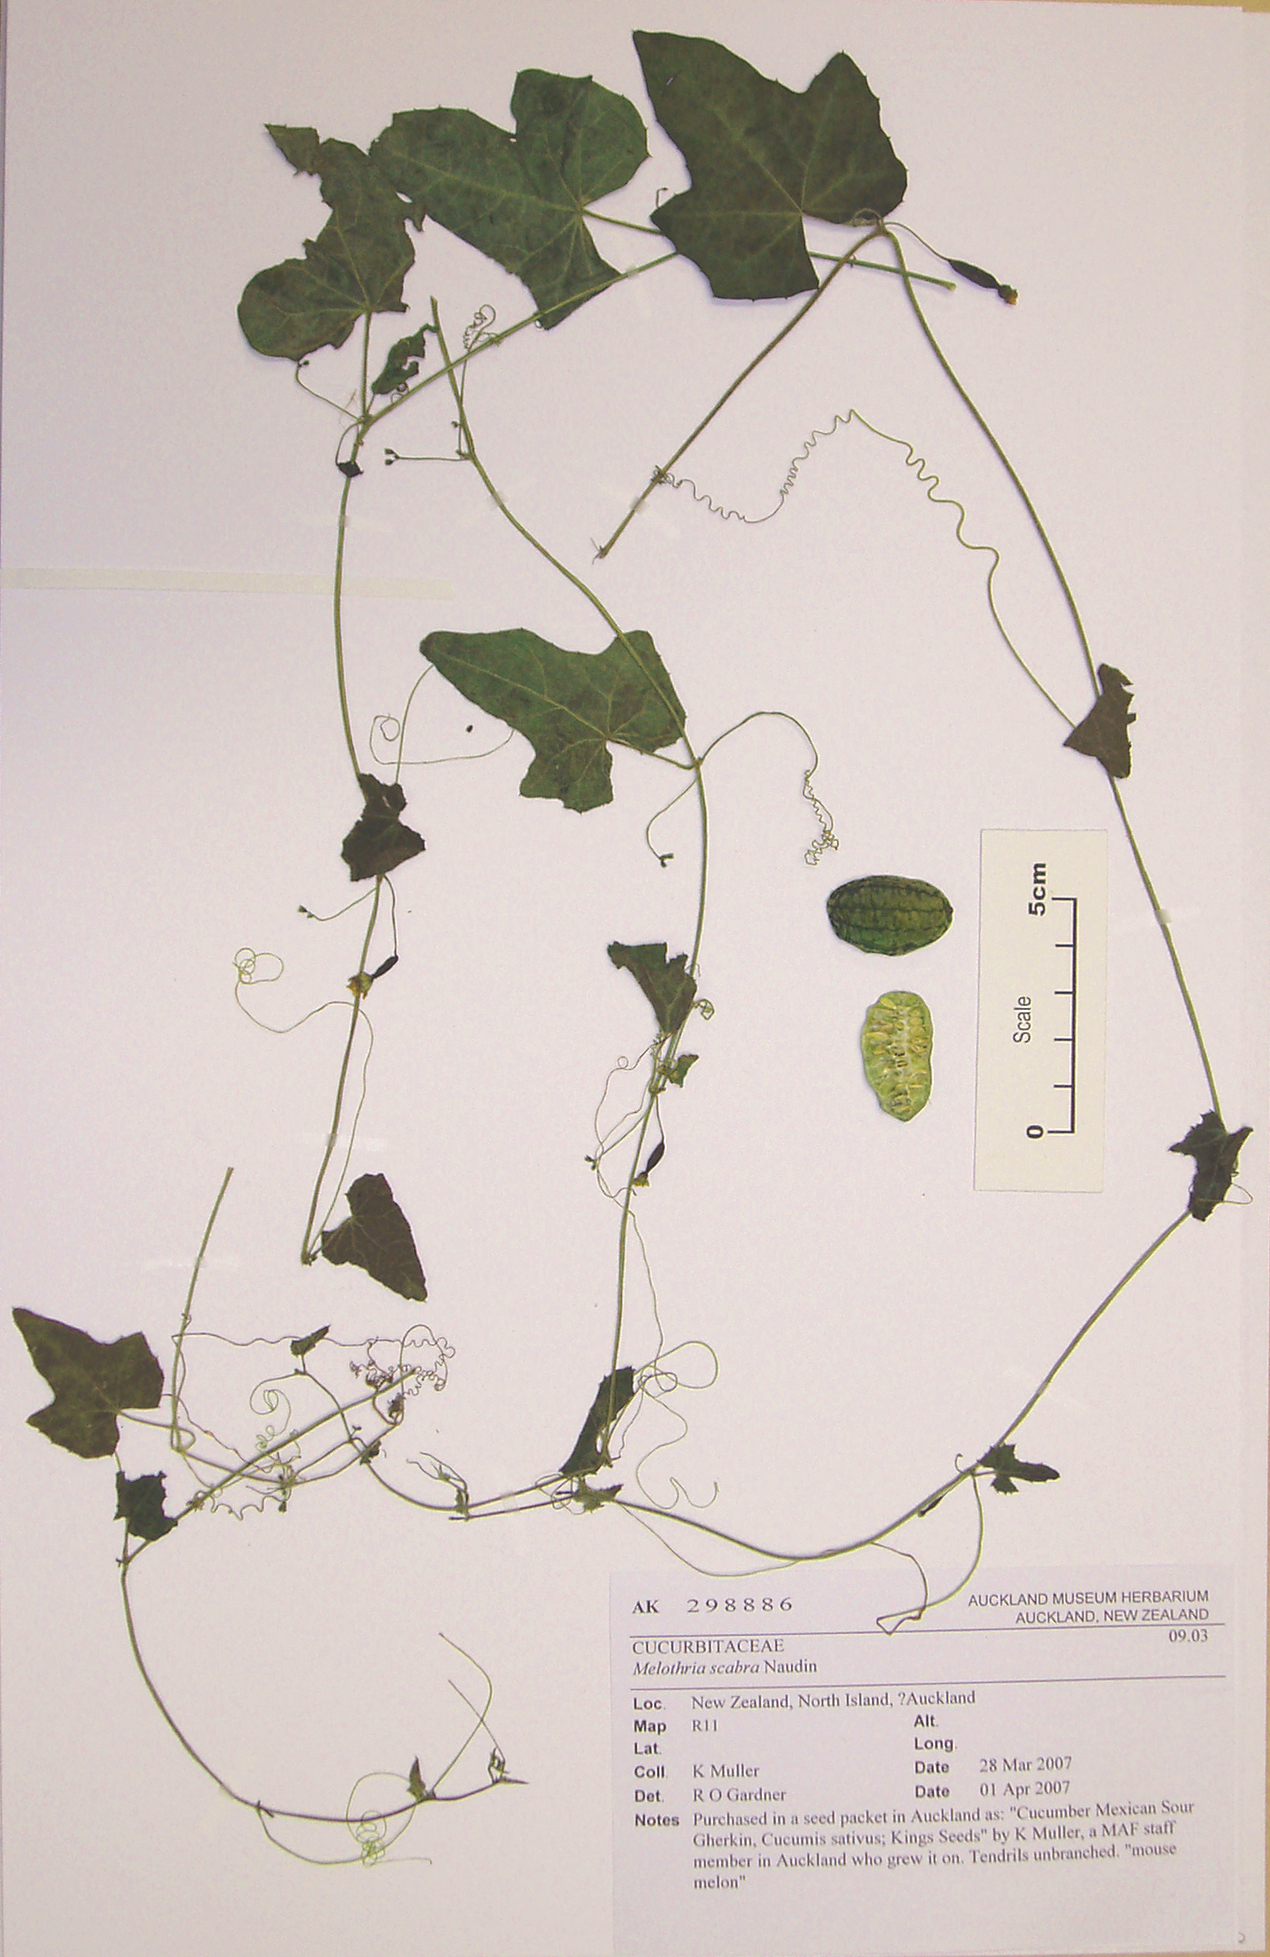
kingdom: Plantae
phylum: Tracheophyta
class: Magnoliopsida
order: Cucurbitales
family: Cucurbitaceae
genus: Melothria
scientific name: Melothria scabra
